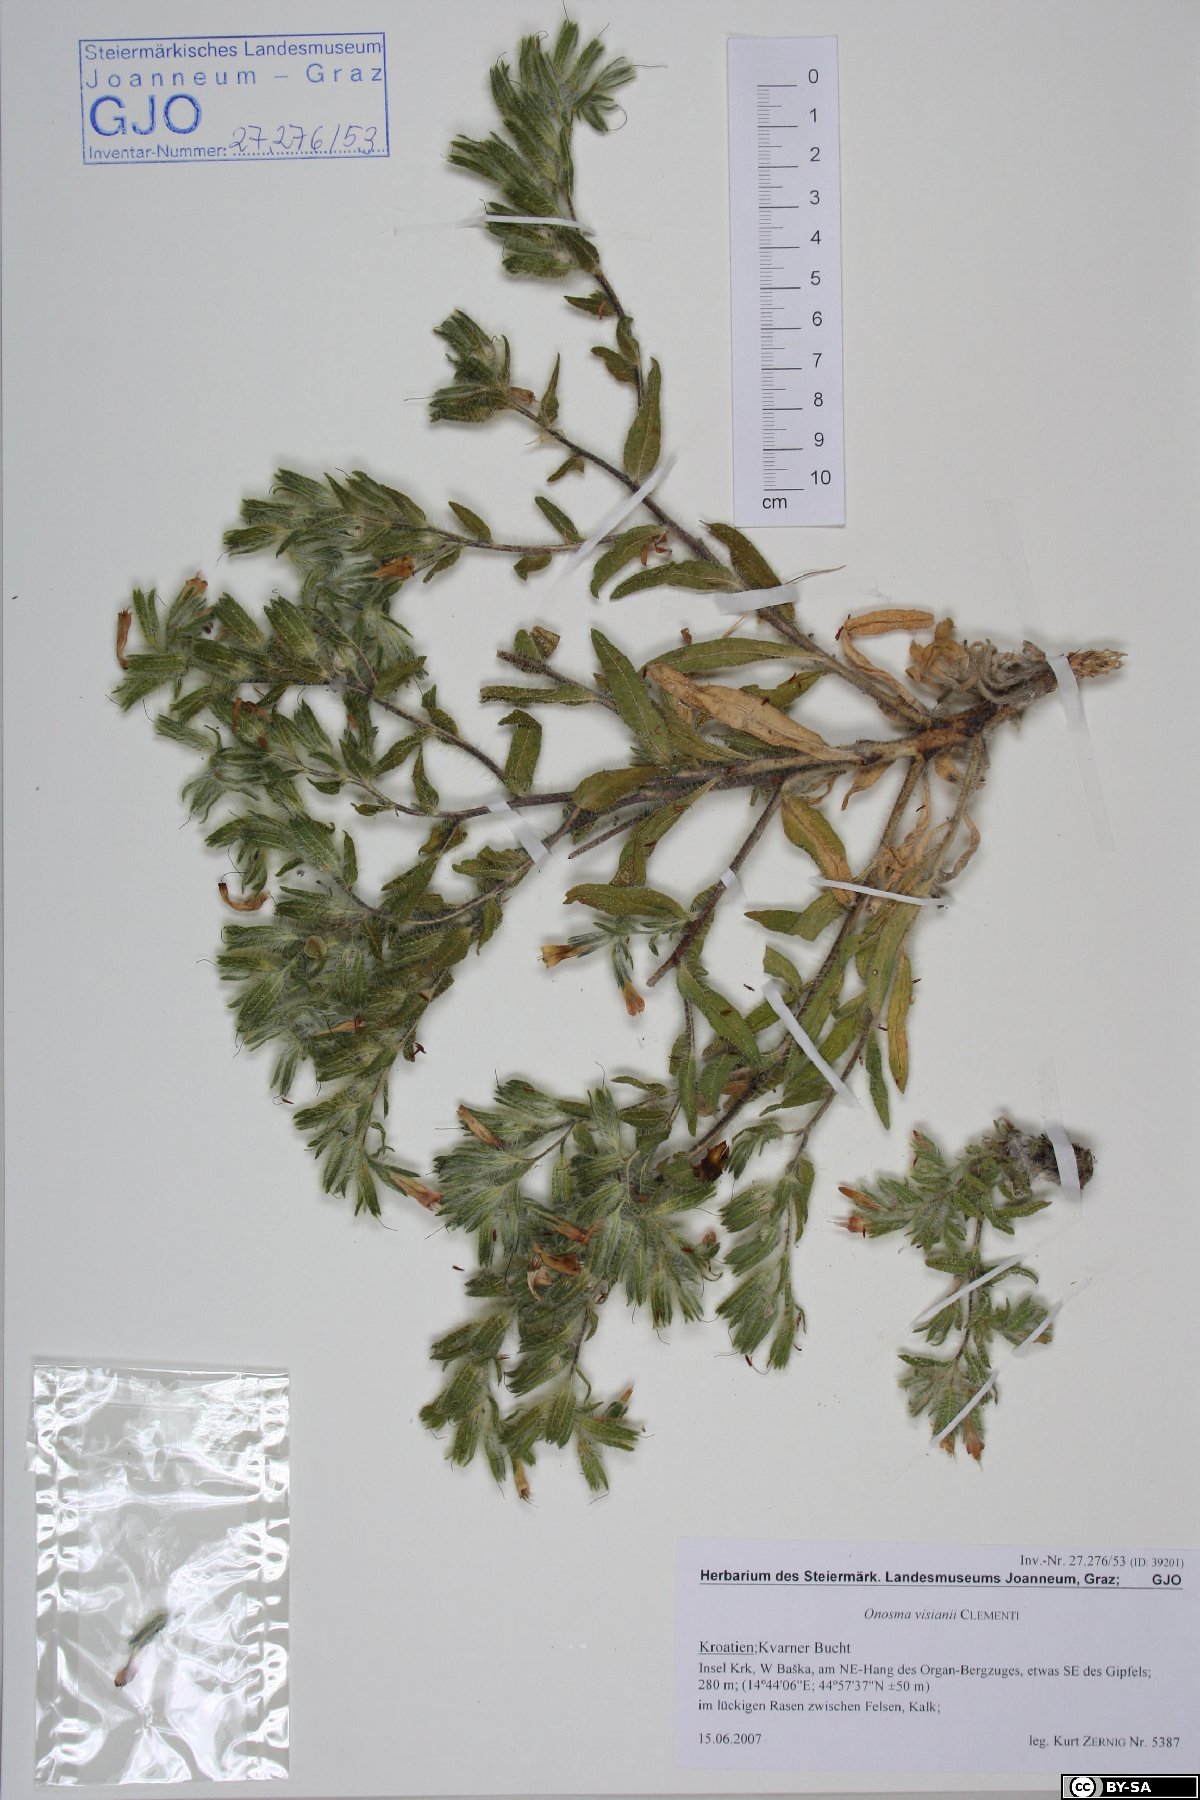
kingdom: Plantae
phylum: Tracheophyta
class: Magnoliopsida
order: Boraginales
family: Boraginaceae
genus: Onosma
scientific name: Onosma visianii
